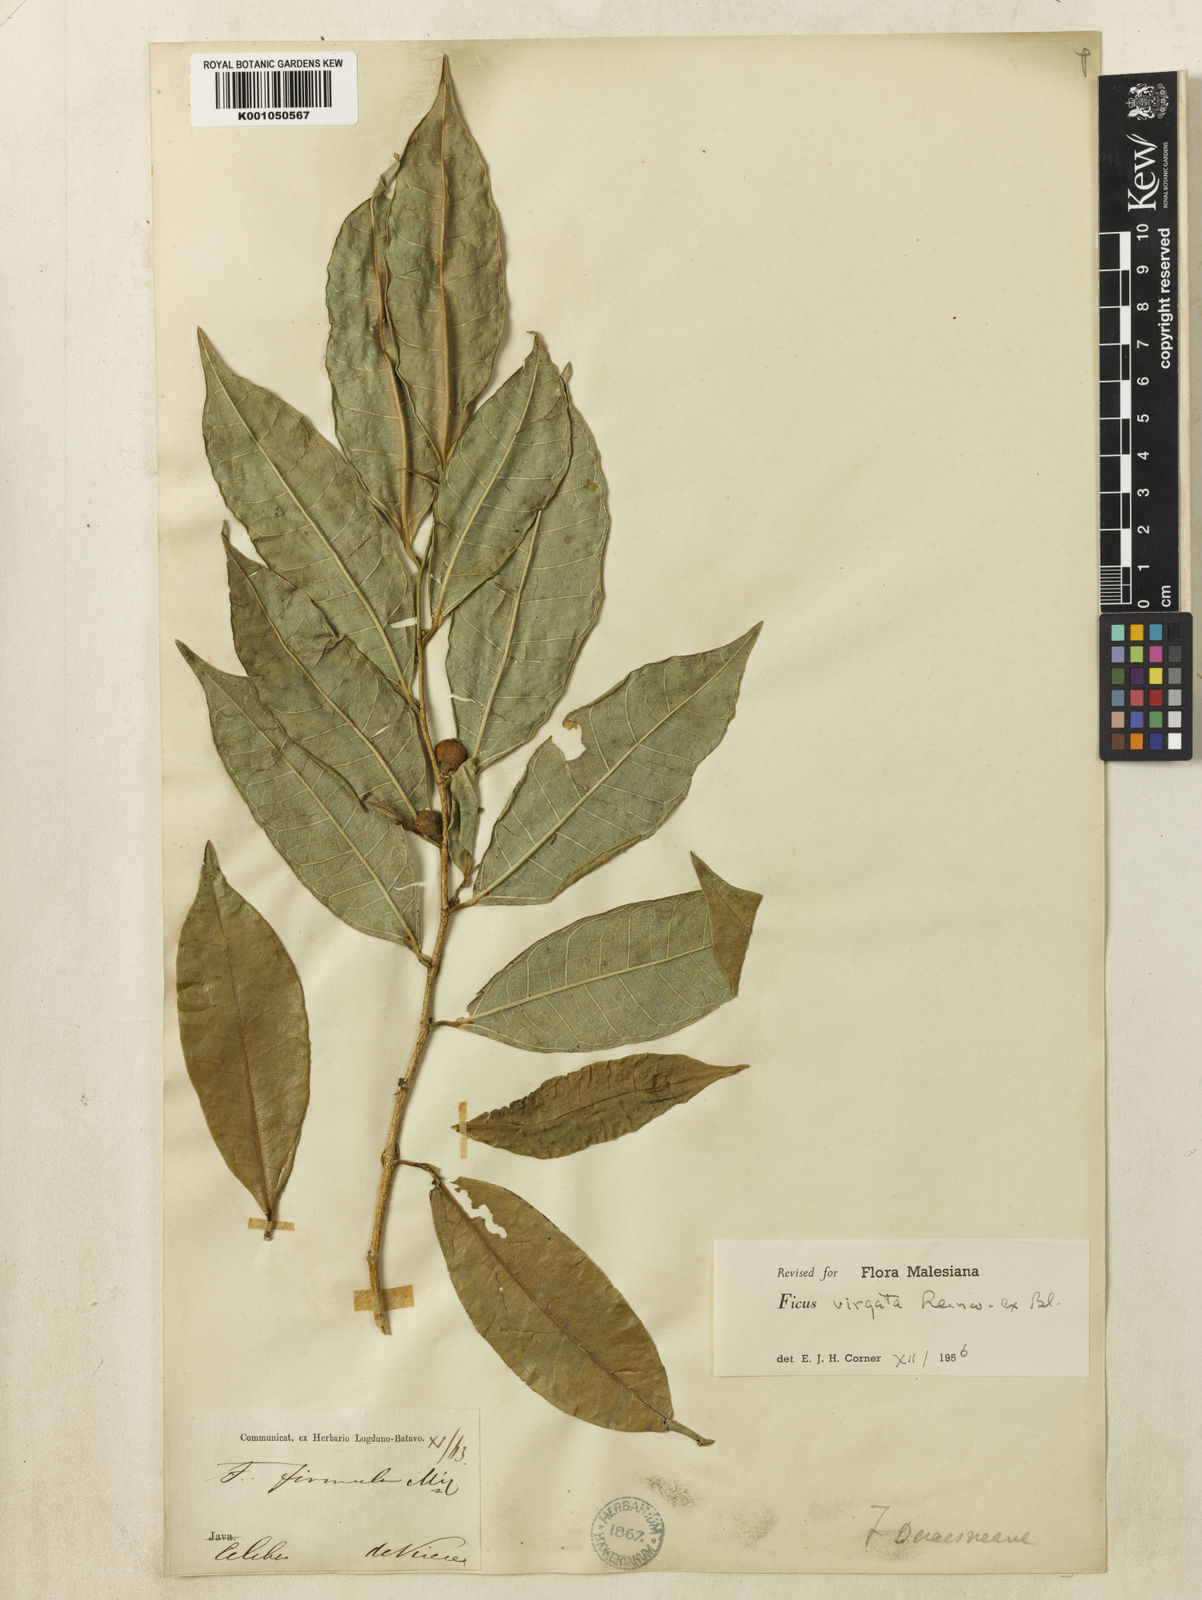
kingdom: Plantae
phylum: Tracheophyta
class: Magnoliopsida
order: Rosales
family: Moraceae
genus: Ficus
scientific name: Ficus virgata
